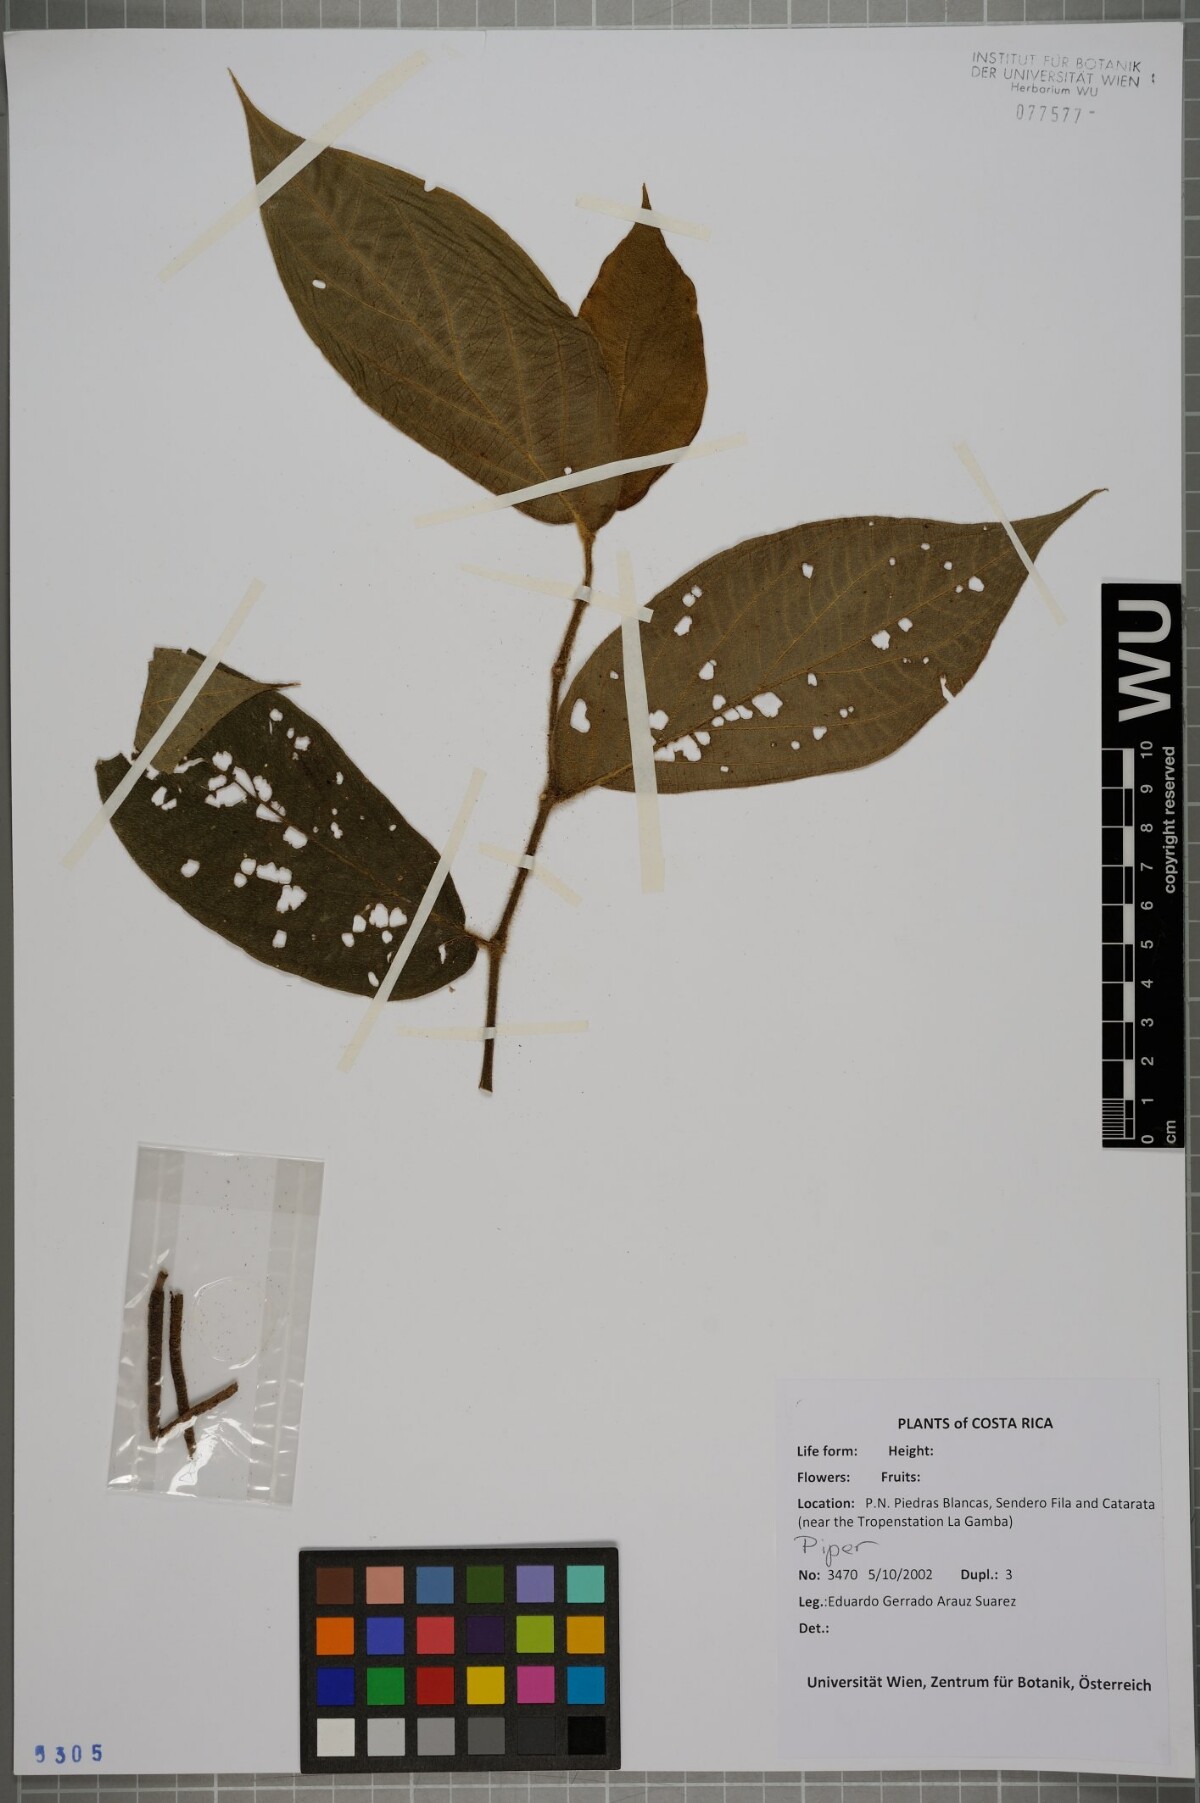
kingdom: Plantae
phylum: Tracheophyta
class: Magnoliopsida
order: Piperales
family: Piperaceae
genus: Piper
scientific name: Piper
